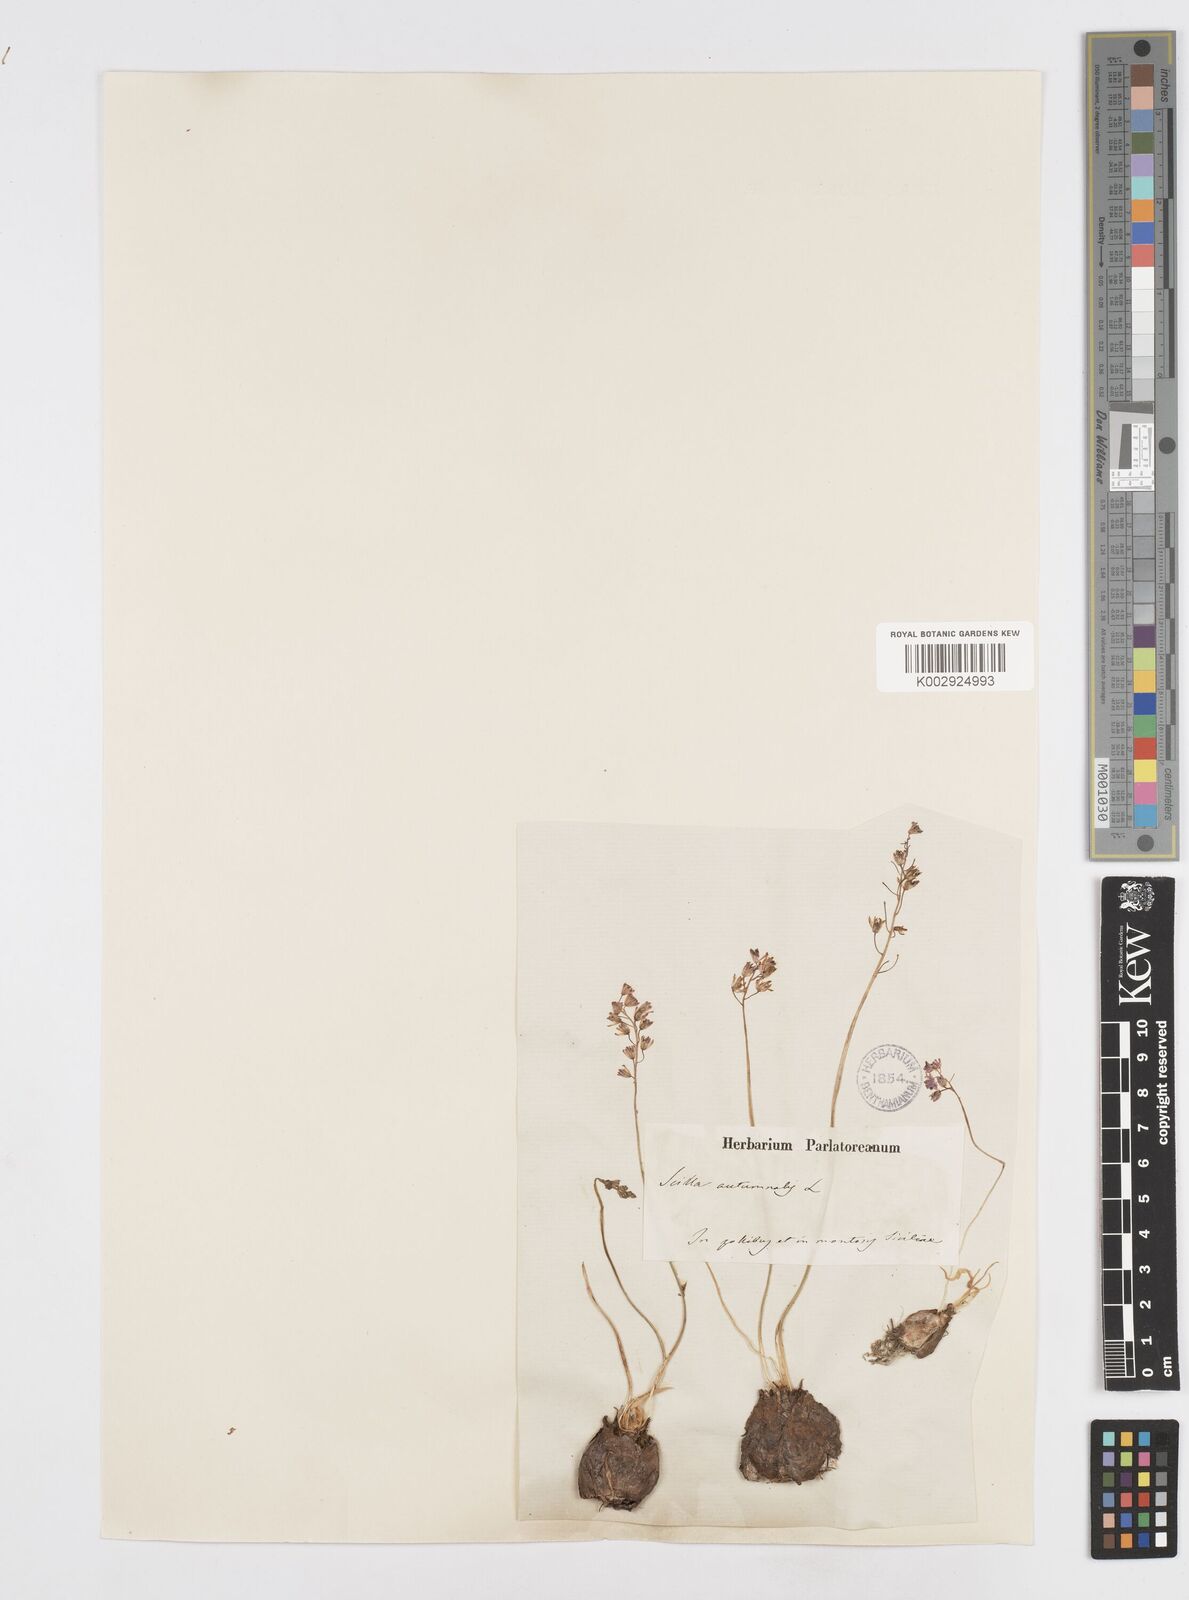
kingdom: Plantae
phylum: Tracheophyta
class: Liliopsida
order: Asparagales
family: Asparagaceae
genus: Prospero
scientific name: Prospero autumnale
